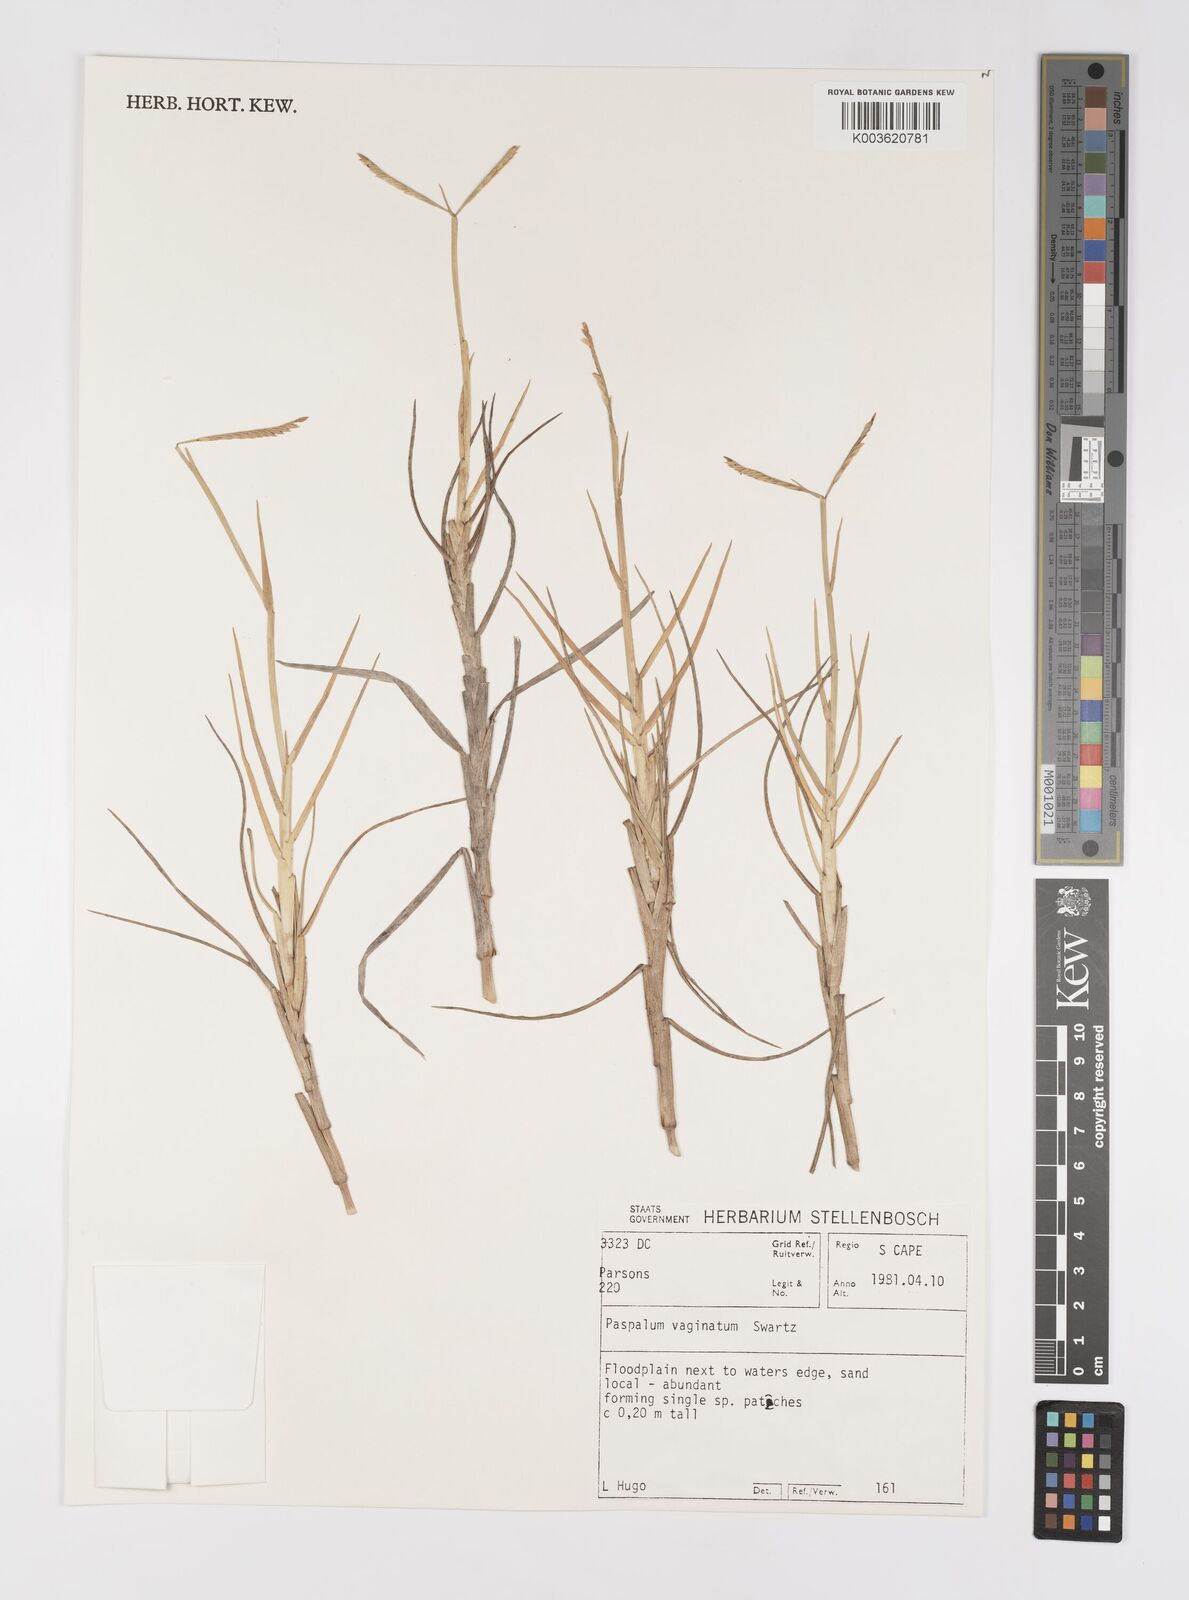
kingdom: Plantae
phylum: Tracheophyta
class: Liliopsida
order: Poales
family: Poaceae
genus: Paspalum
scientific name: Paspalum vaginatum
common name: Seashore paspalum
